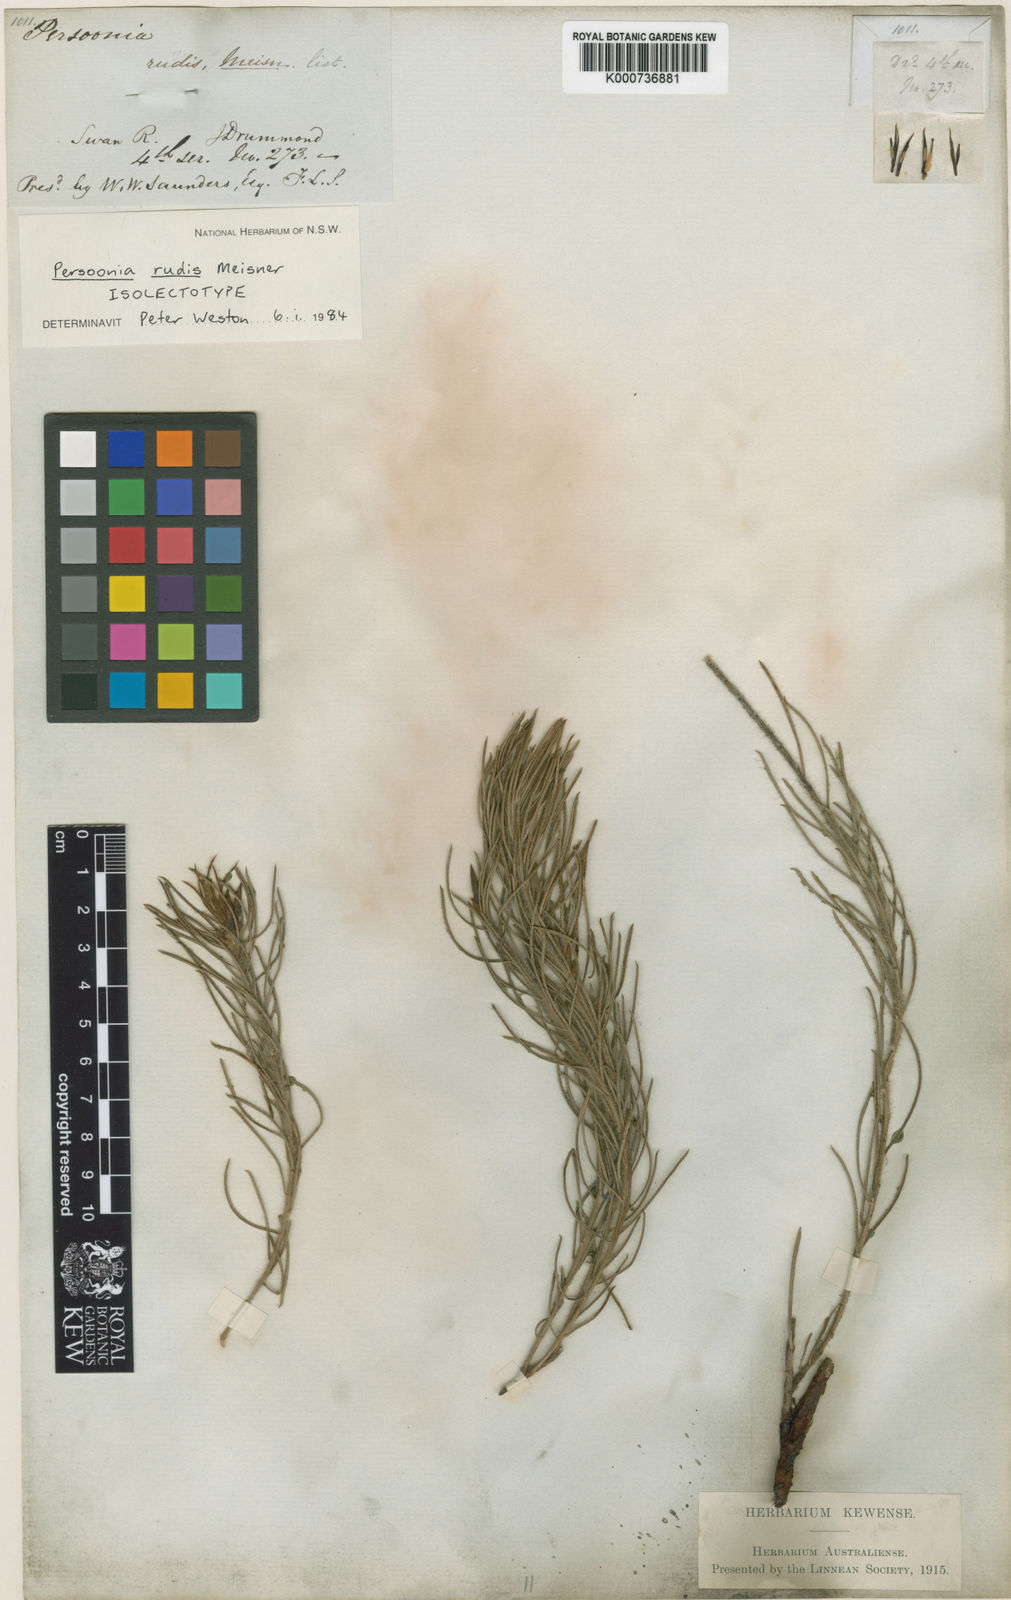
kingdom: Plantae
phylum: Tracheophyta
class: Magnoliopsida
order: Proteales
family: Proteaceae
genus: Persoonia
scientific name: Persoonia rudis
